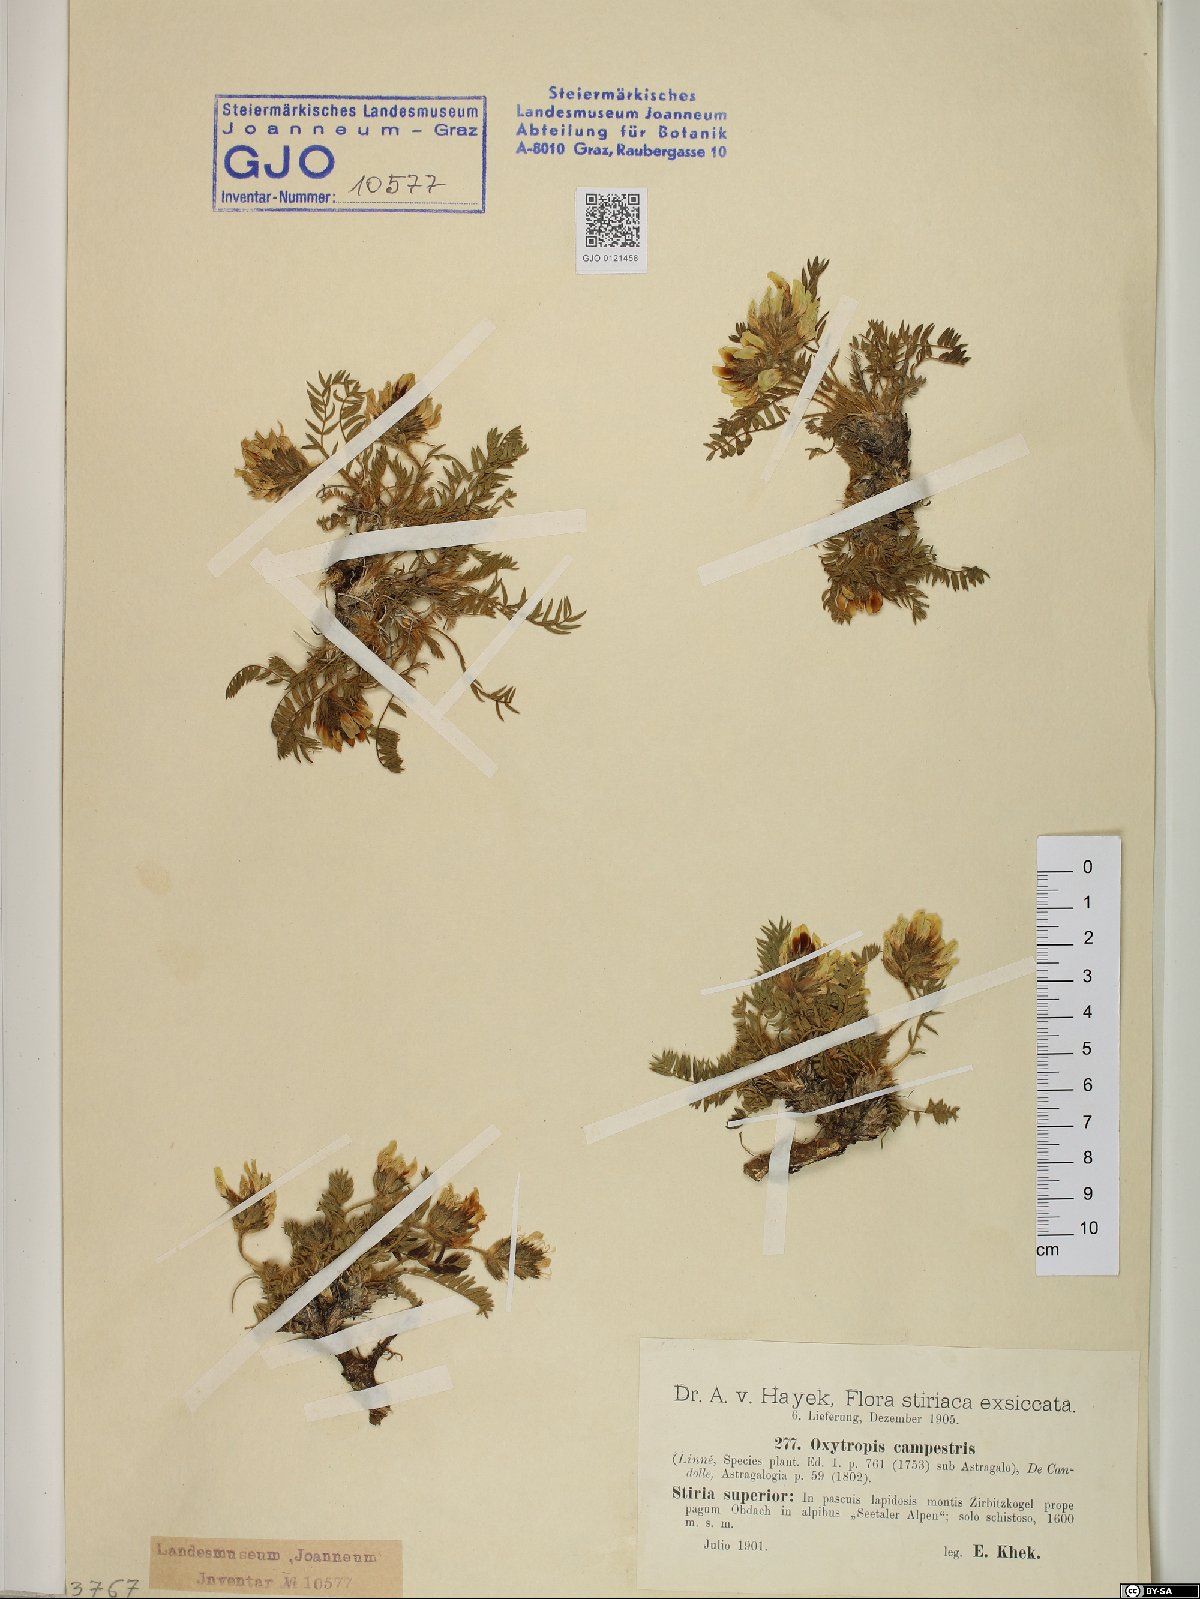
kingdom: Plantae
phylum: Tracheophyta
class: Magnoliopsida
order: Fabales
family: Fabaceae
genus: Oxytropis
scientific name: Oxytropis campestris
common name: Field locoweed
